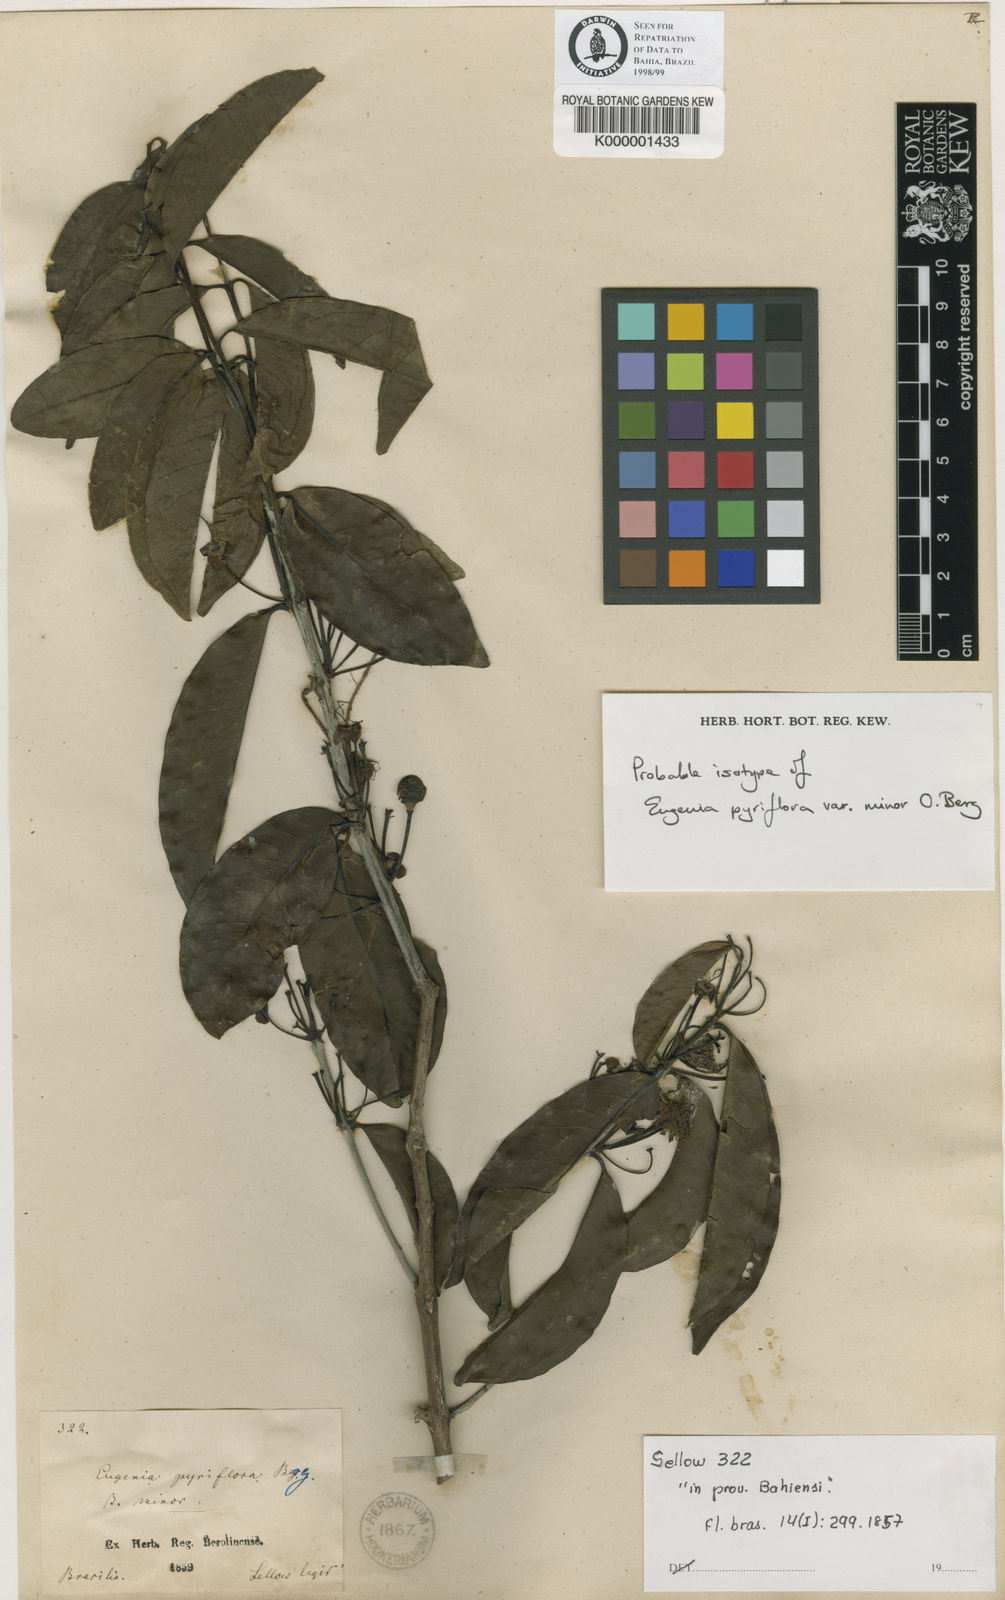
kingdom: Plantae
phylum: Tracheophyta
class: Magnoliopsida
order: Myrtales
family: Myrtaceae
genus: Eugenia
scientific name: Eugenia pyriflora
